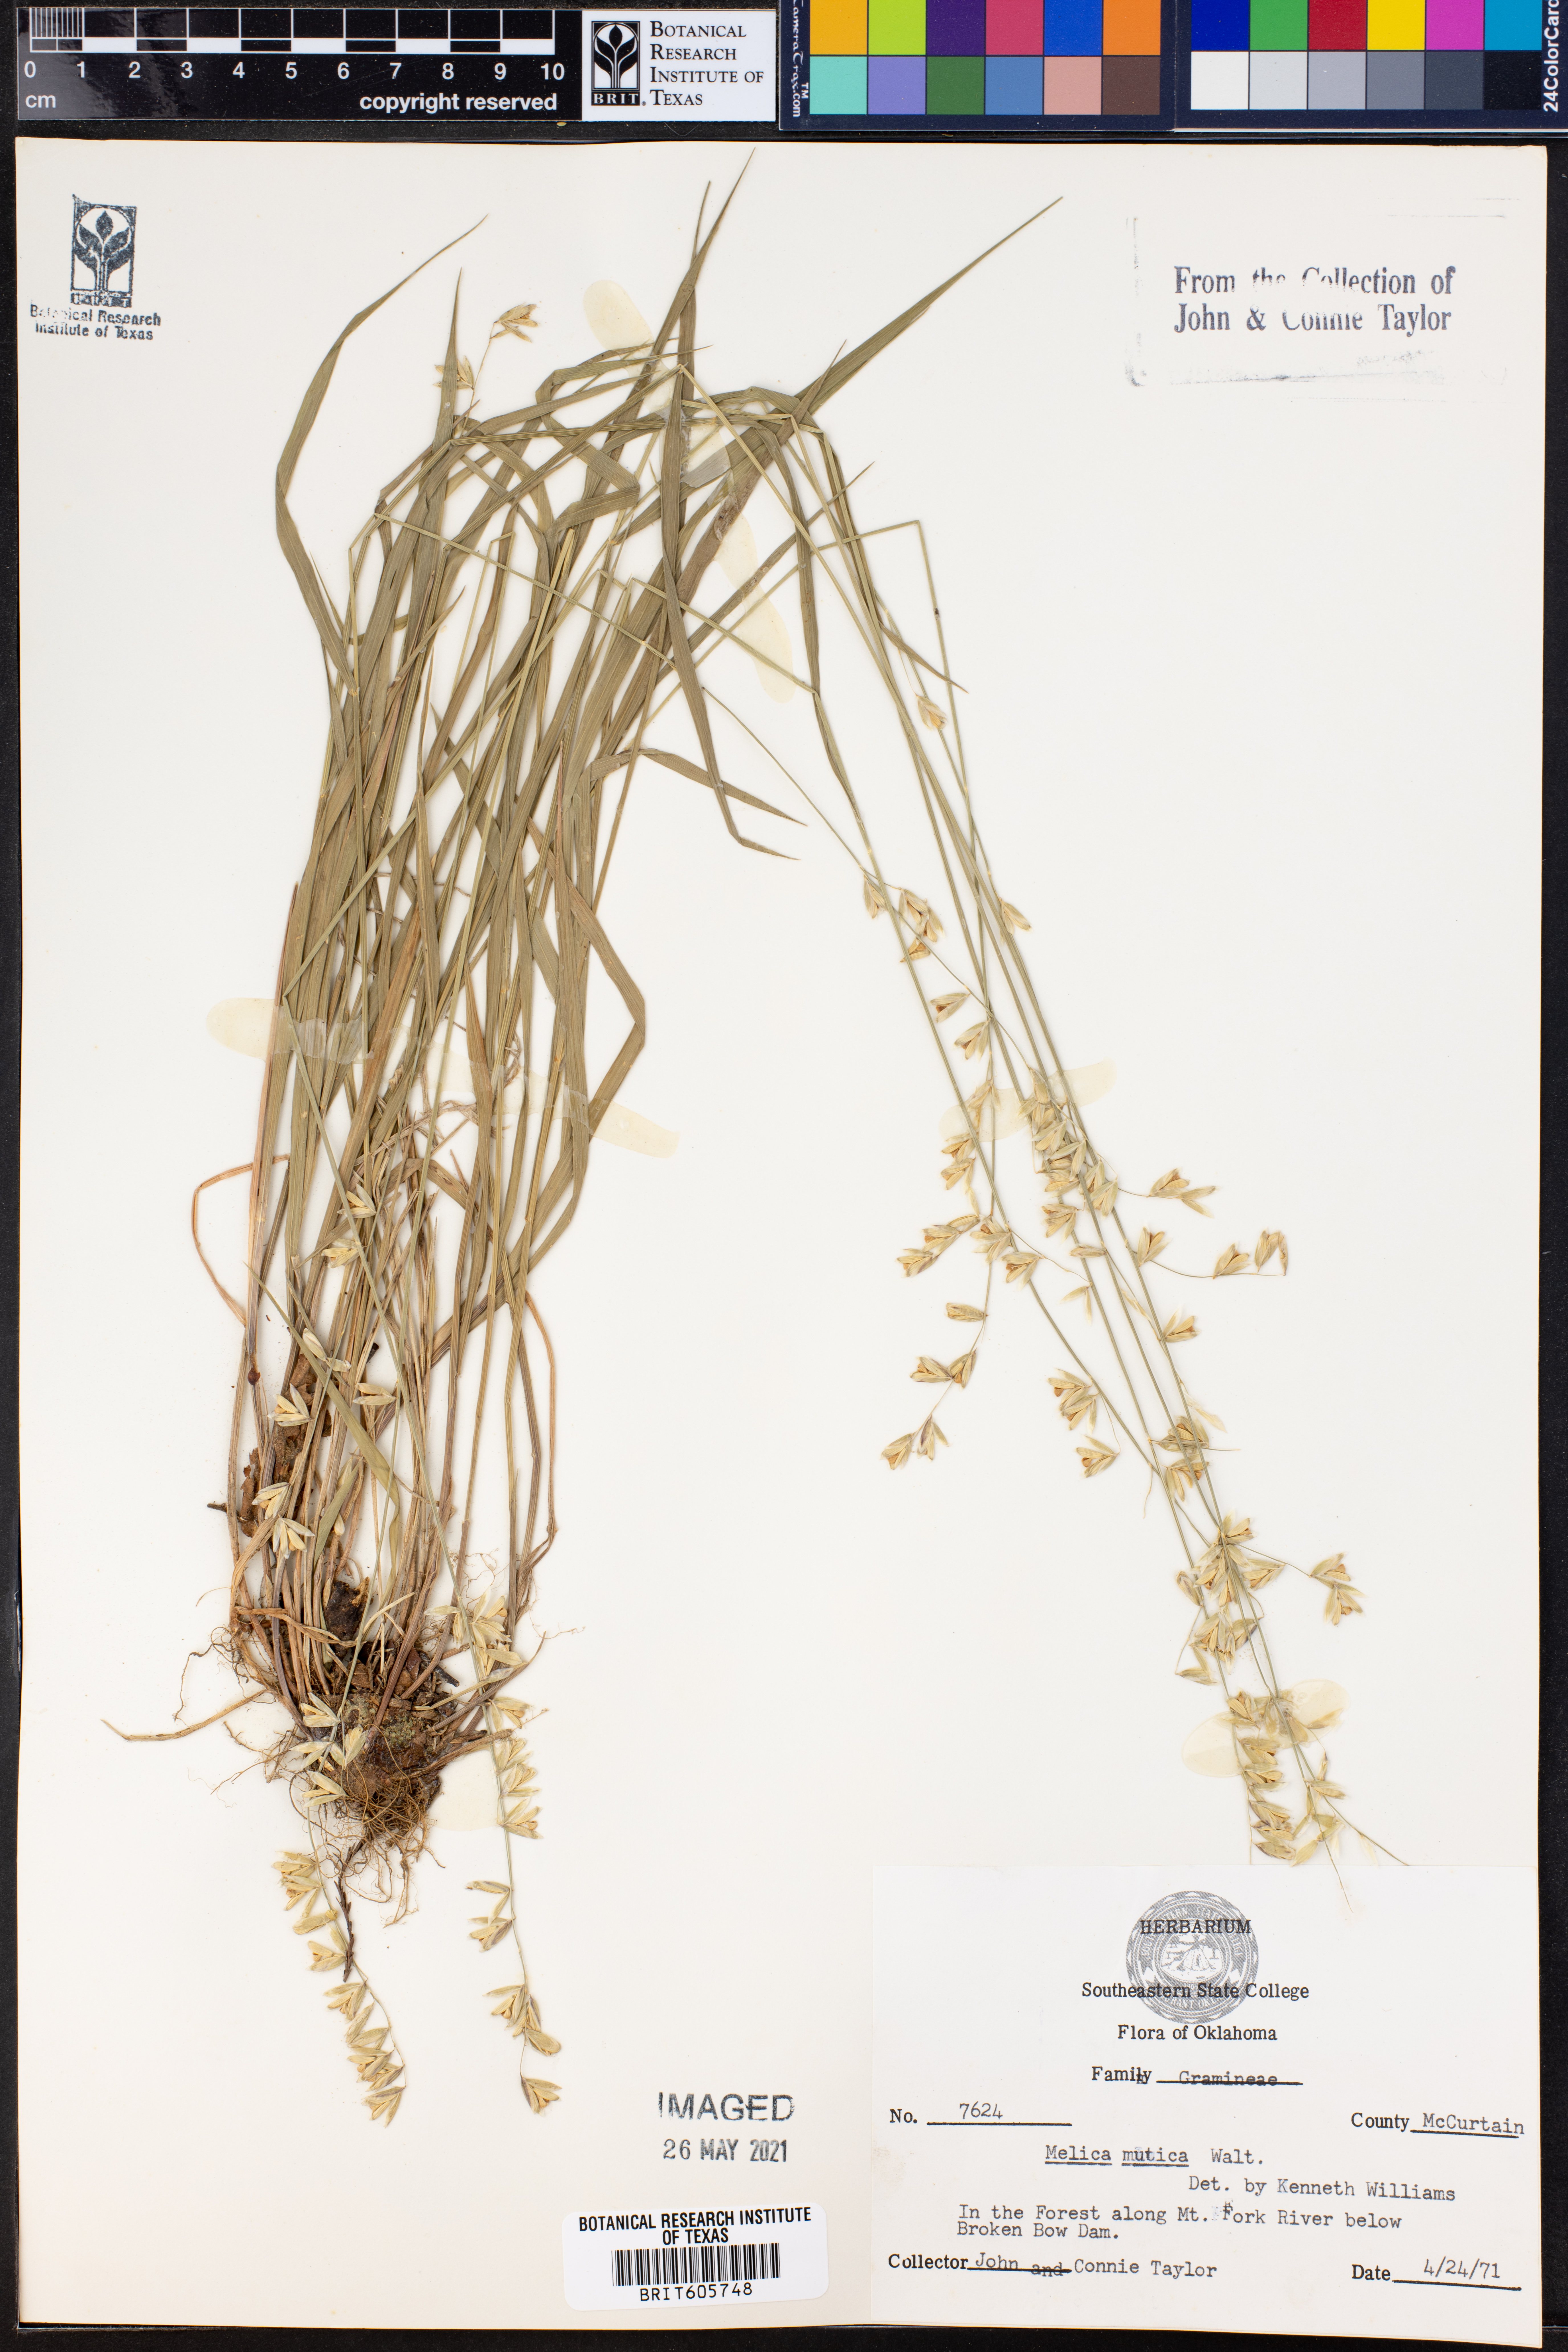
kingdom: Plantae
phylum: Tracheophyta
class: Liliopsida
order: Poales
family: Poaceae
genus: Melica
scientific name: Melica mutica
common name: Two-flower melic
